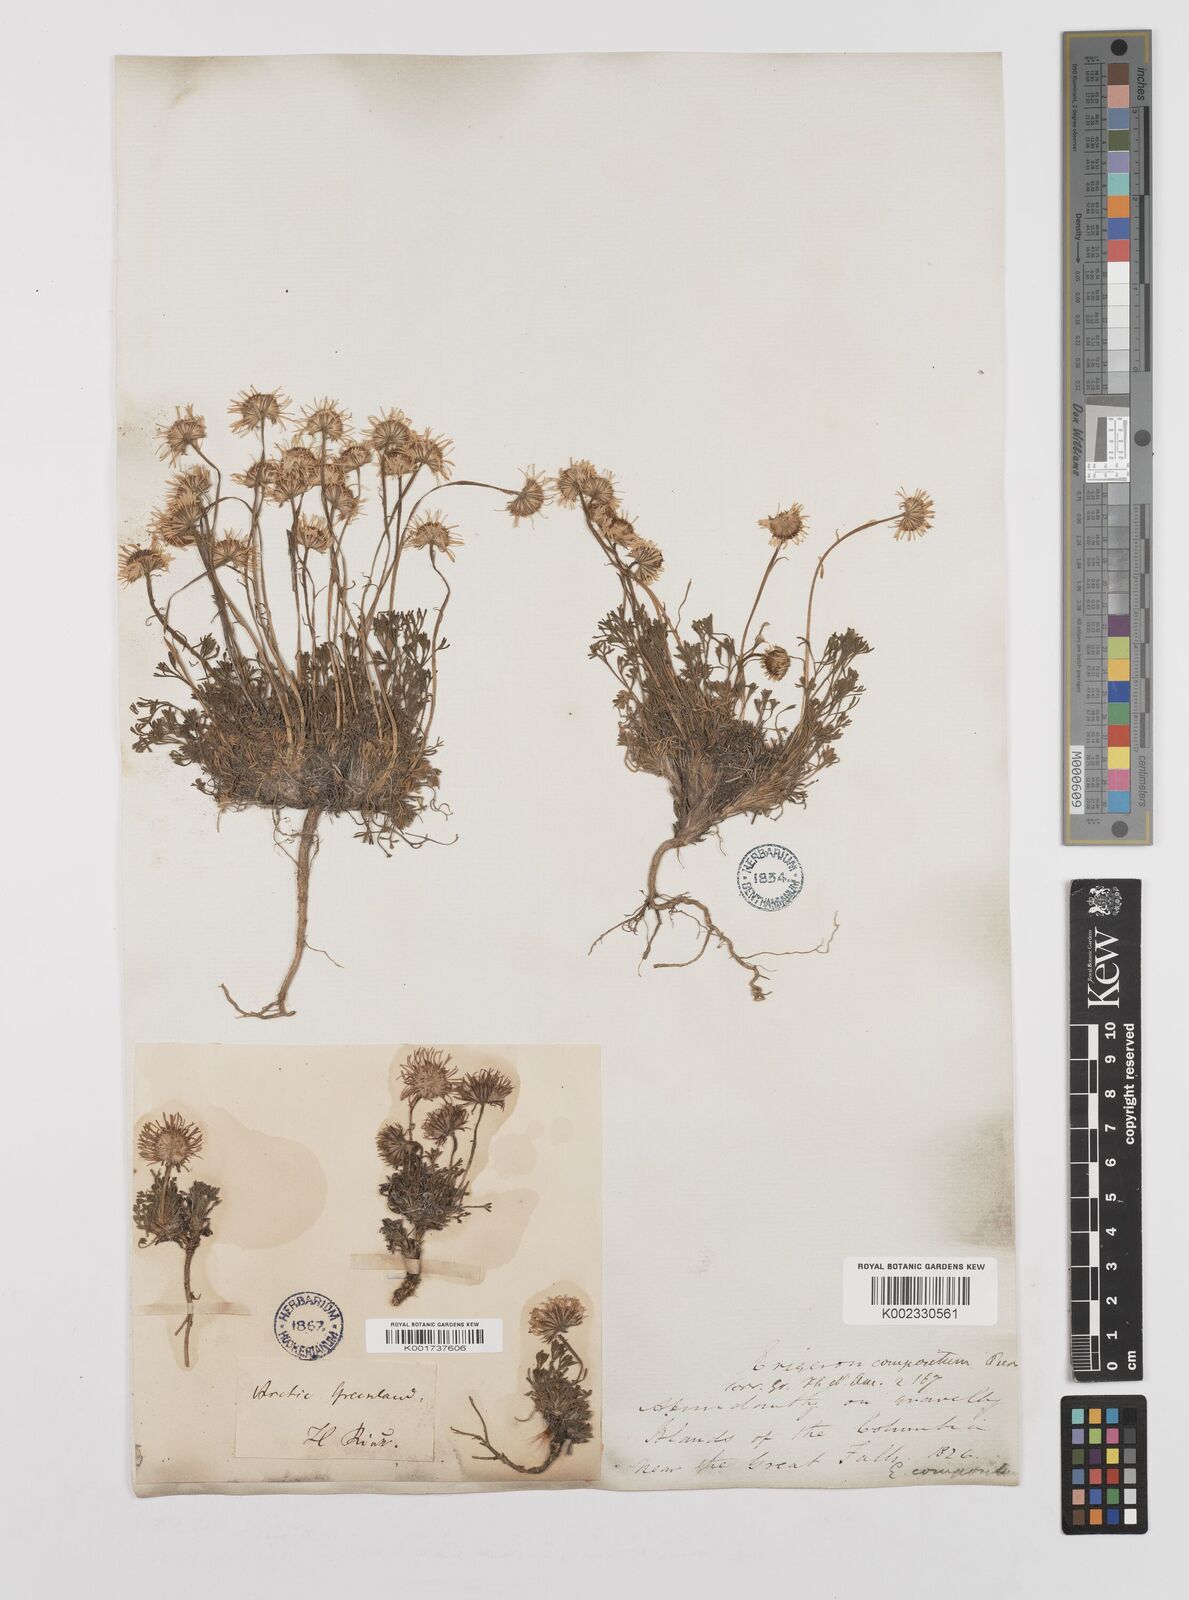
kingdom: Plantae
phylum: Tracheophyta
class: Magnoliopsida
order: Asterales
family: Asteraceae
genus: Erigeron
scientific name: Erigeron compositus
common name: Dwarf mountain fleabane
